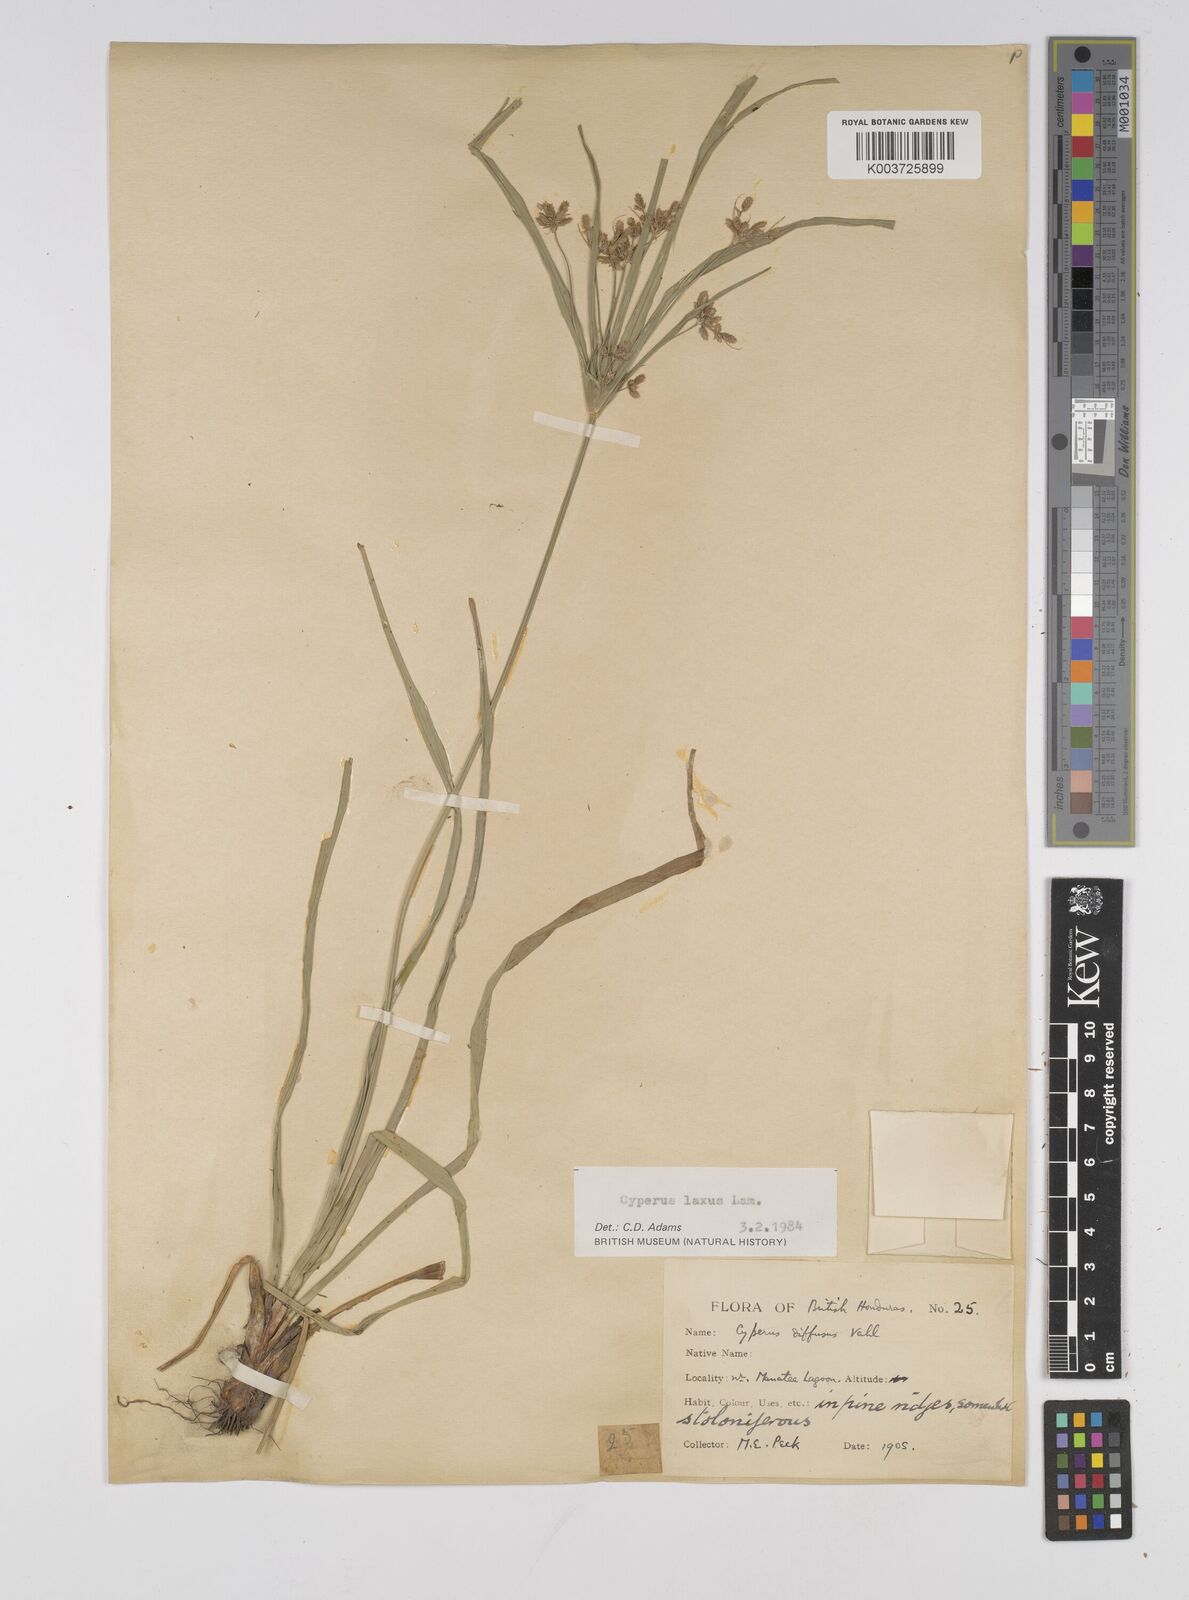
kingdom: Plantae
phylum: Tracheophyta
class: Liliopsida
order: Poales
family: Cyperaceae
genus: Cyperus
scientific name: Cyperus chalaranthus
